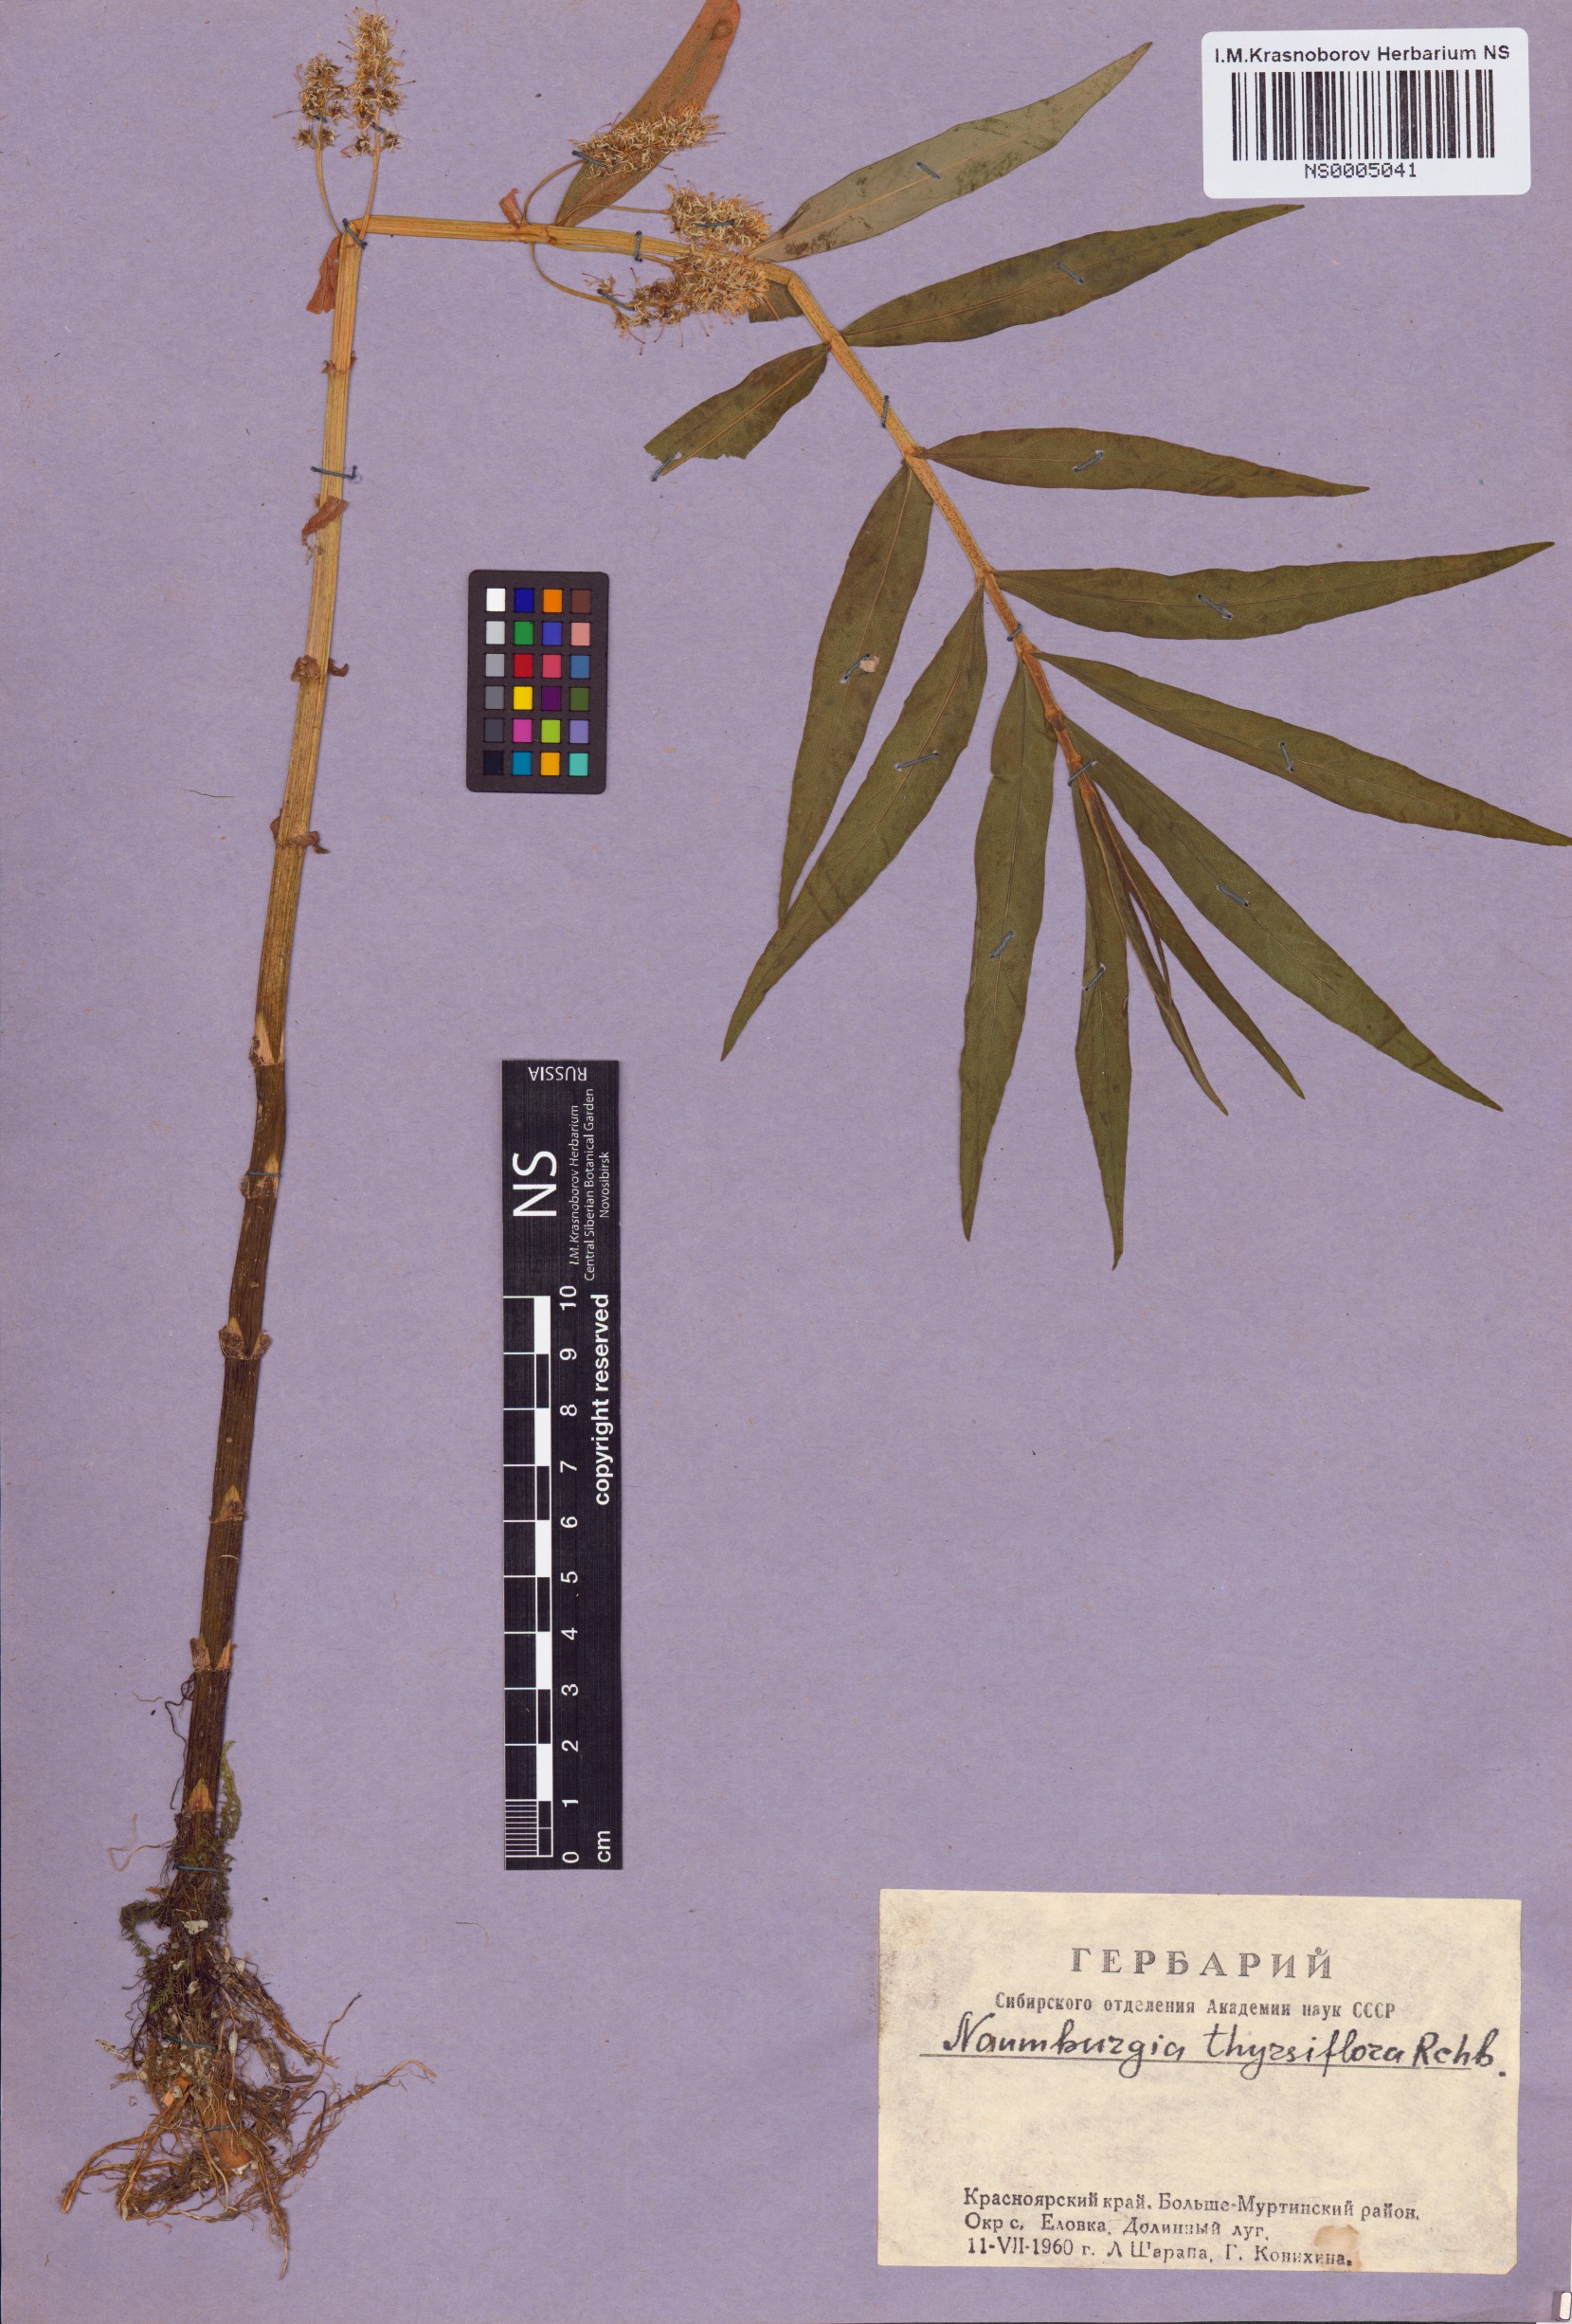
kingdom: Plantae
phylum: Tracheophyta
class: Magnoliopsida
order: Ericales
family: Primulaceae
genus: Lysimachia
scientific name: Lysimachia thyrsiflora
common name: Tufted loosestrife
